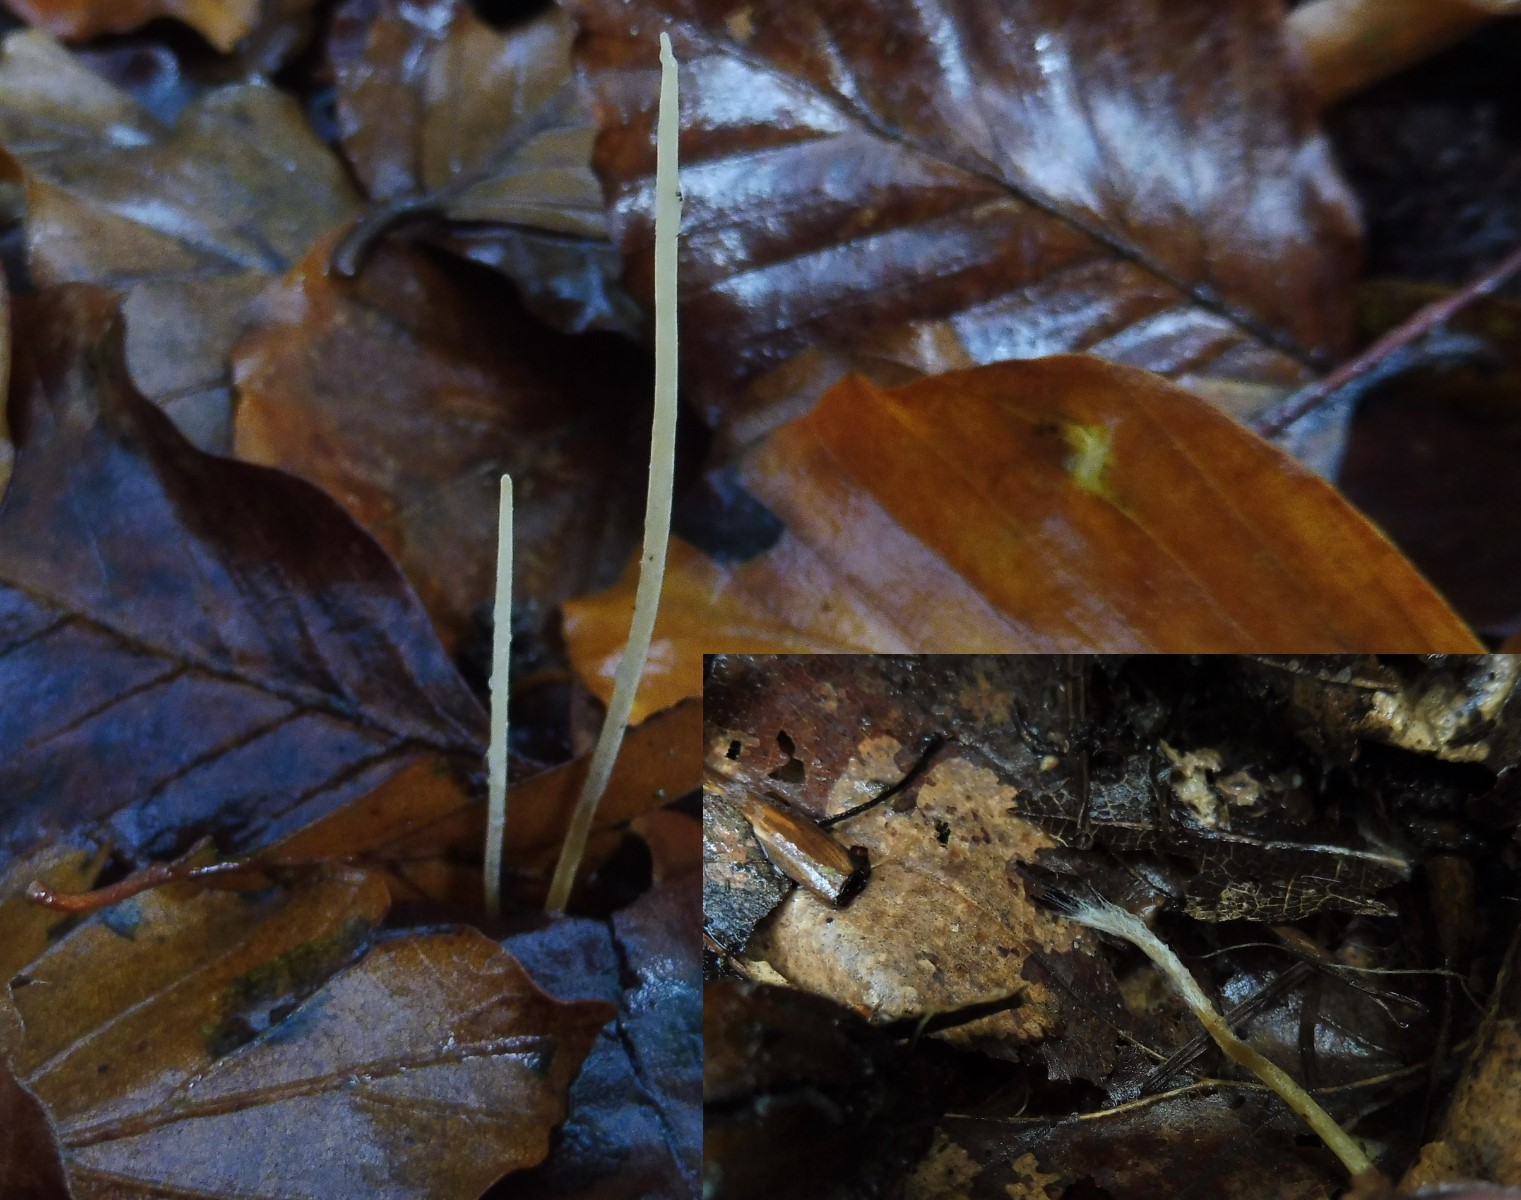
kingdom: Fungi
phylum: Basidiomycota
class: Agaricomycetes
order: Agaricales
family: Typhulaceae
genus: Typhula
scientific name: Typhula juncea
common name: trådagtig rørkølle
